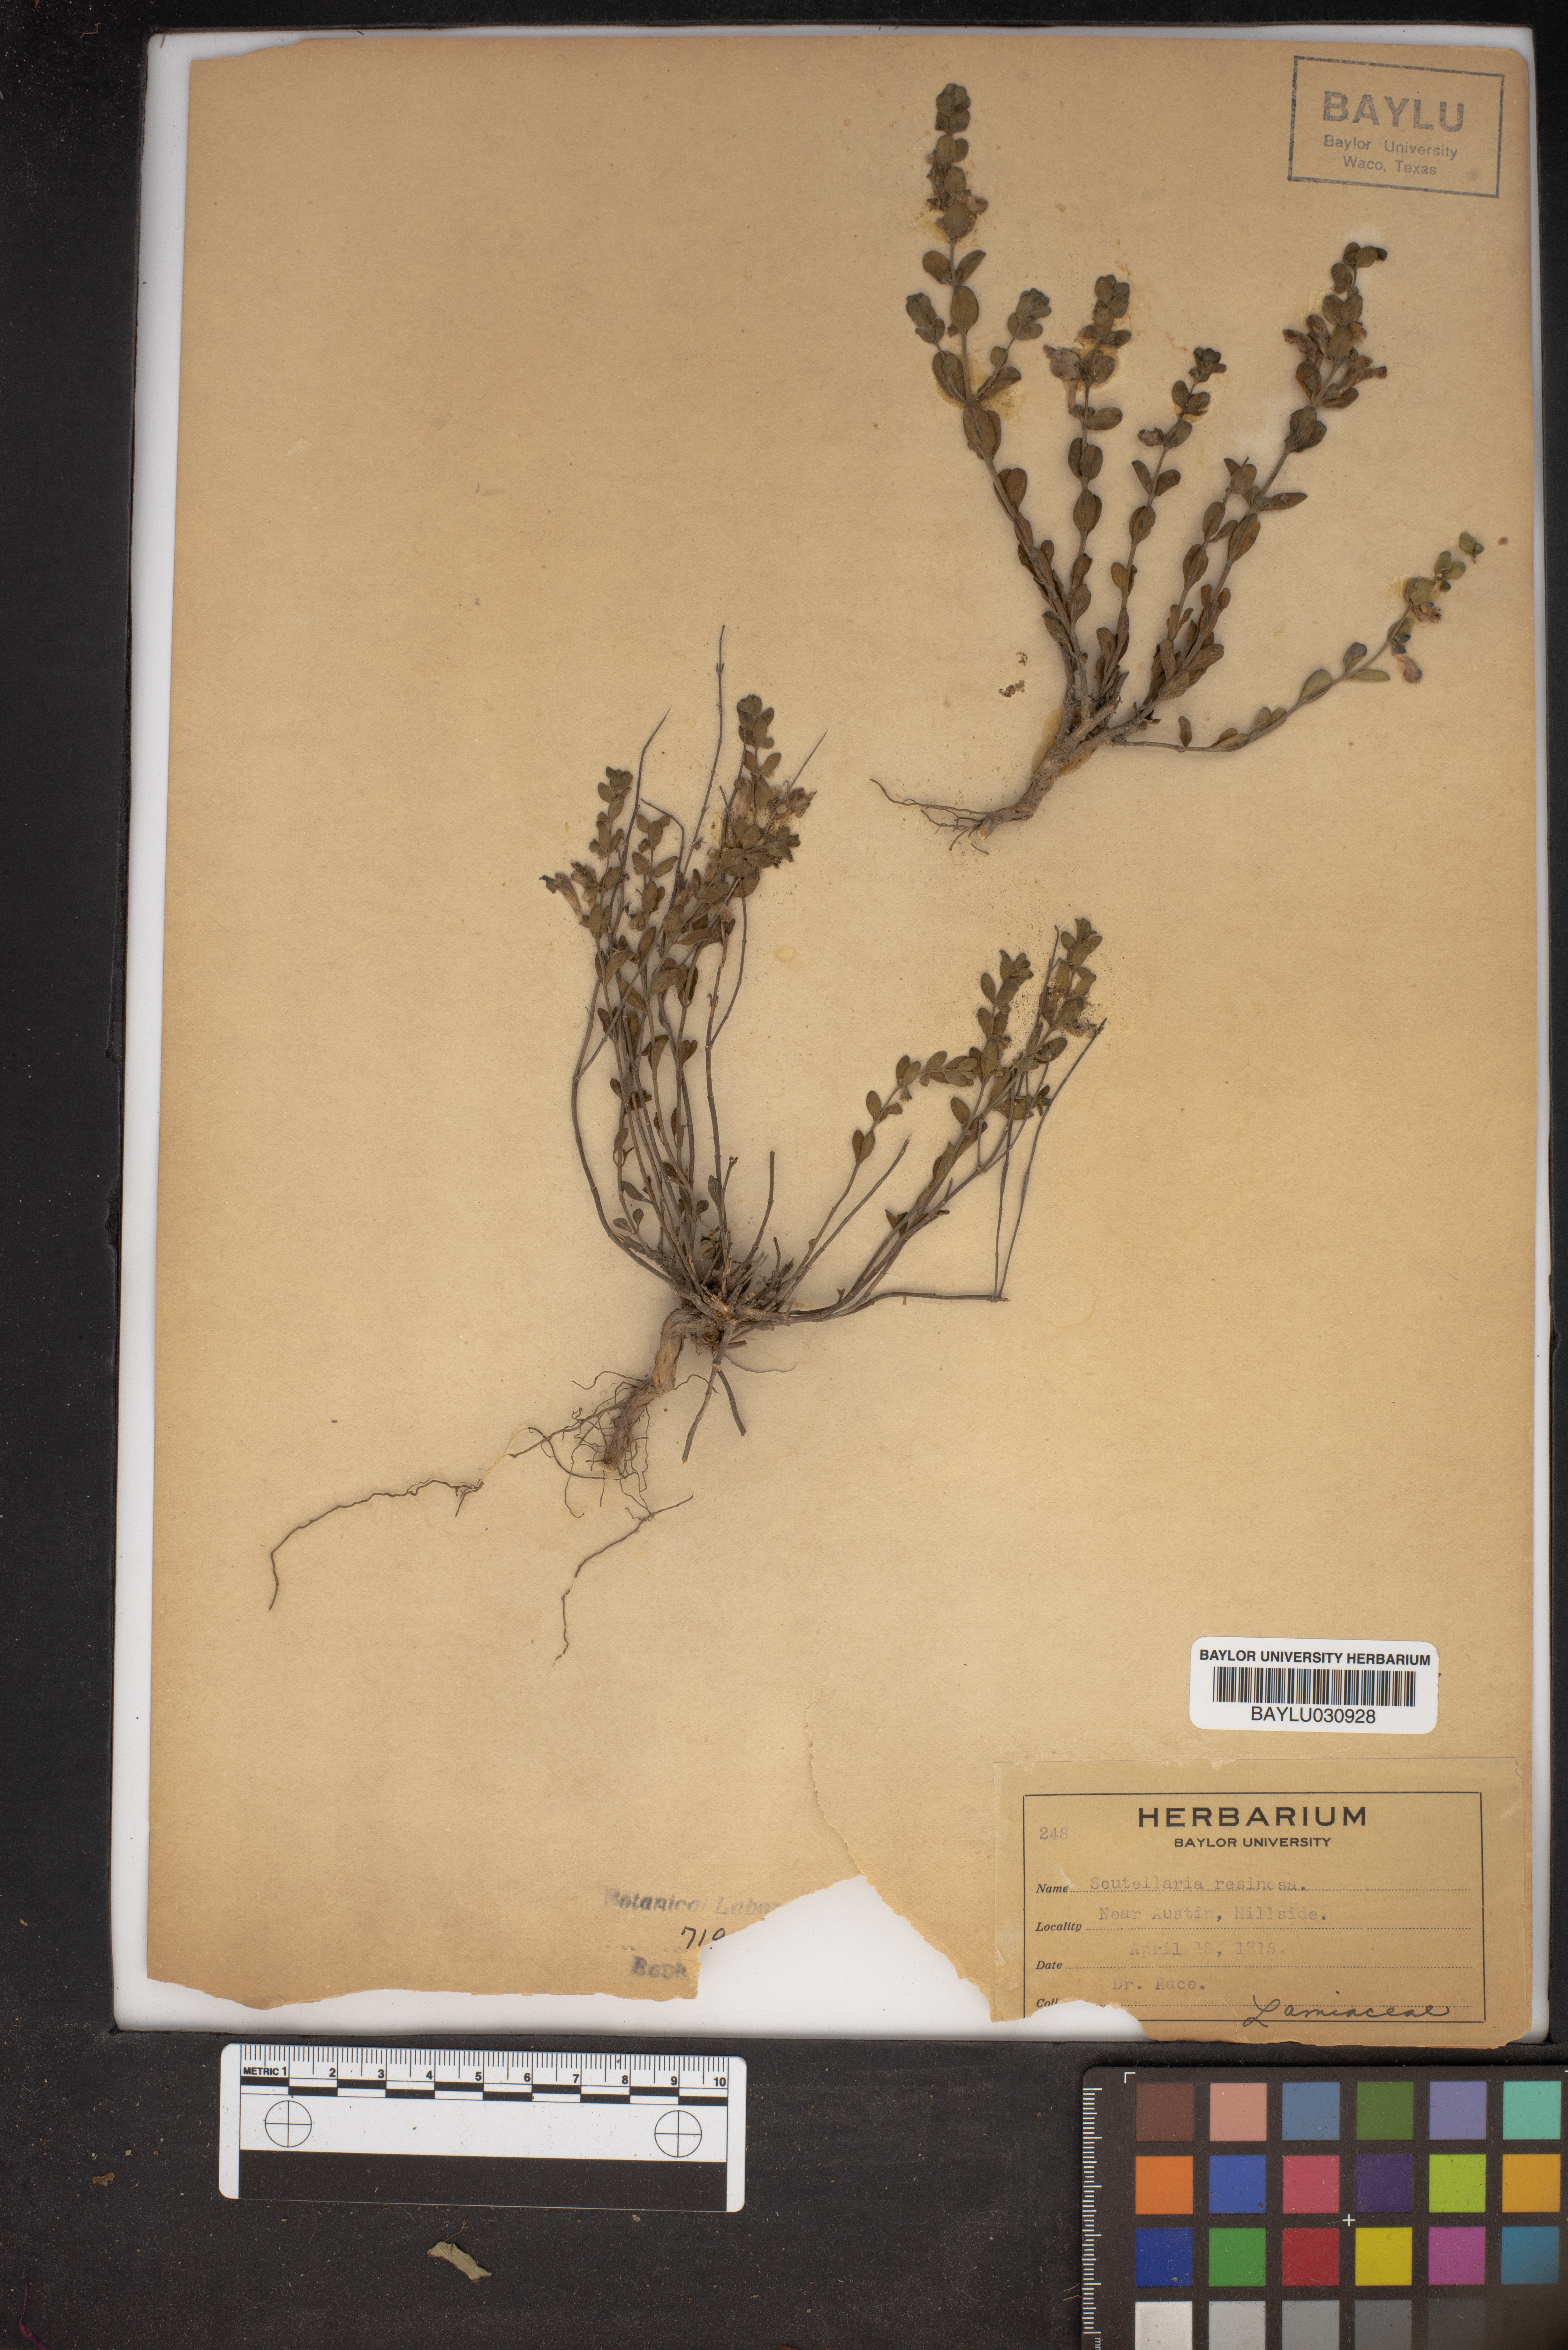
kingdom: Plantae
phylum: Tracheophyta
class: Magnoliopsida
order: Lamiales
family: Lamiaceae
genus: Scutellaria
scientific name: Scutellaria resinosa
